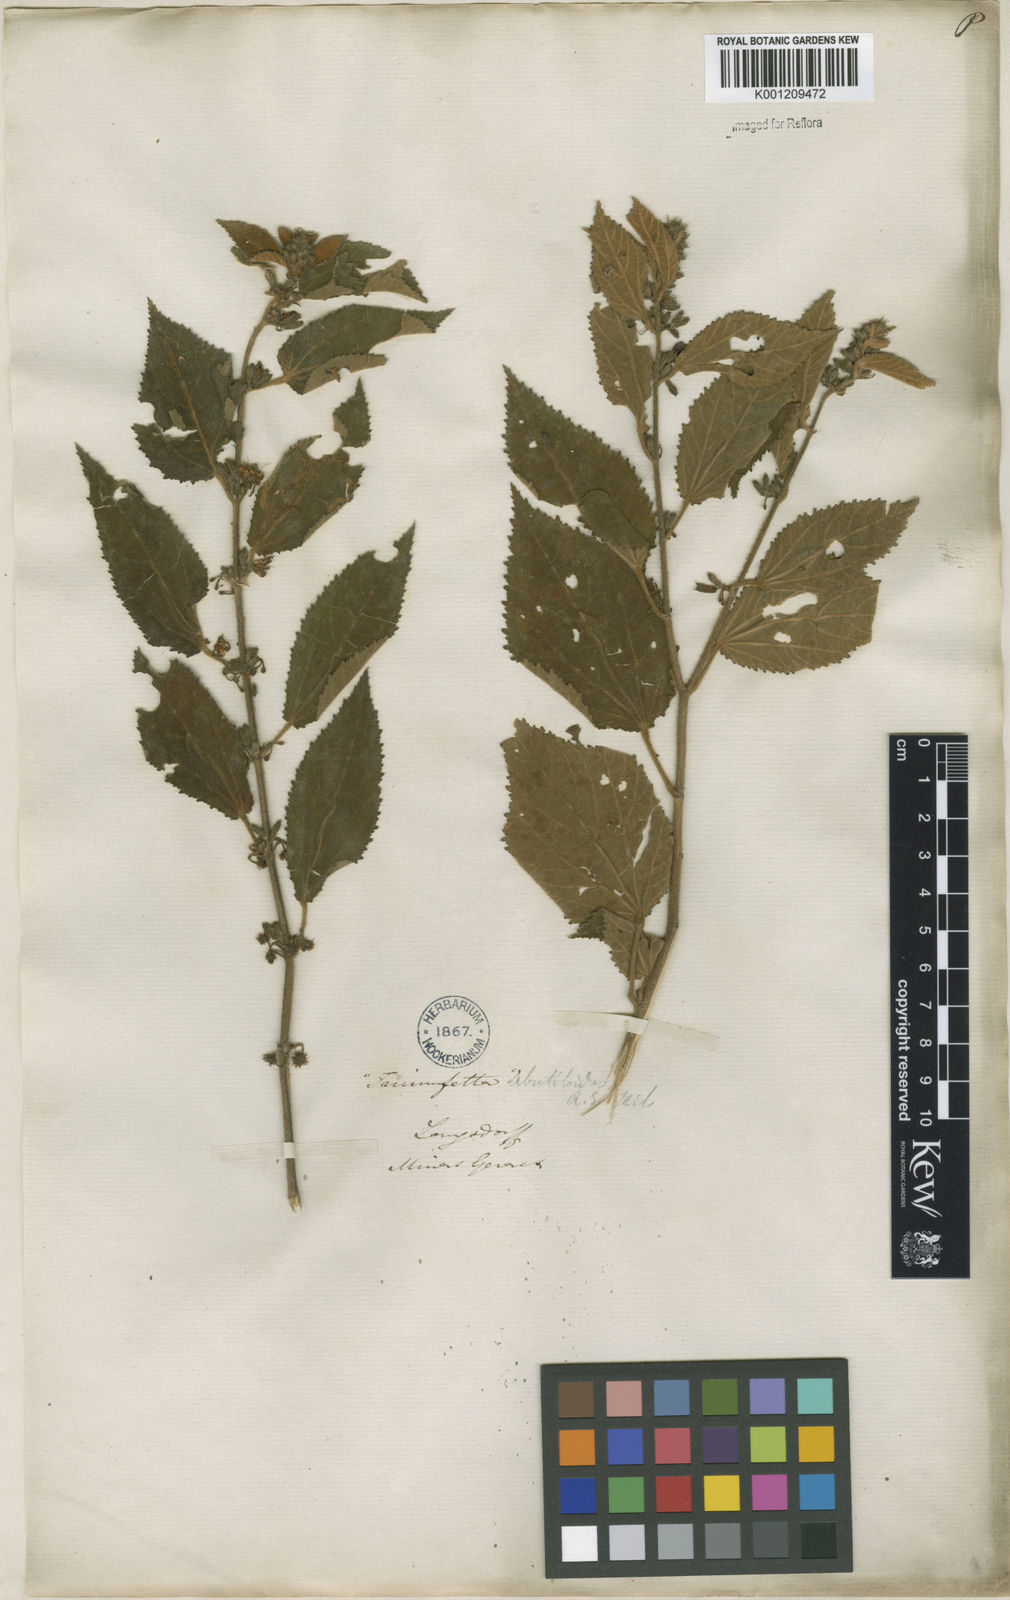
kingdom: Plantae
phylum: Tracheophyta
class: Magnoliopsida
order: Malvales
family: Malvaceae
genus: Triumfetta
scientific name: Triumfetta abutiloides
